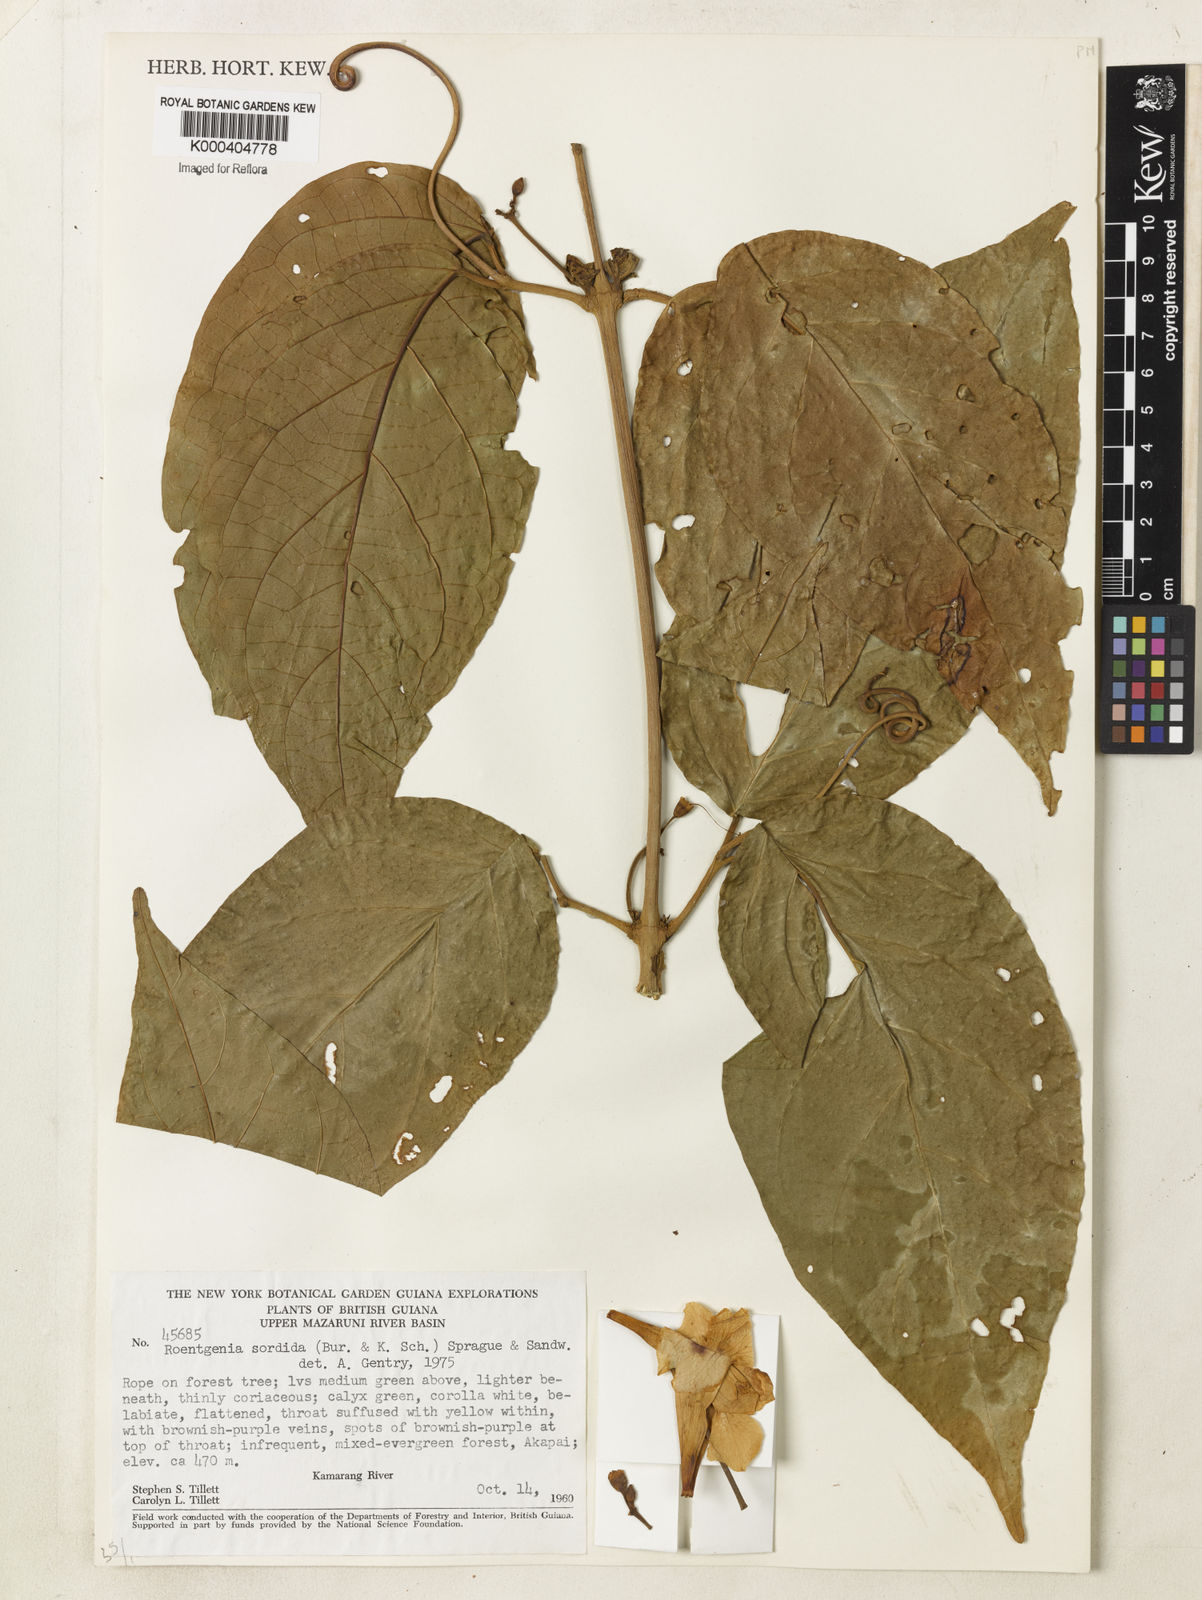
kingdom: Plantae
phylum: Tracheophyta
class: Magnoliopsida
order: Lamiales
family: Bignoniaceae
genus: Bignonia
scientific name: Bignonia sordida
